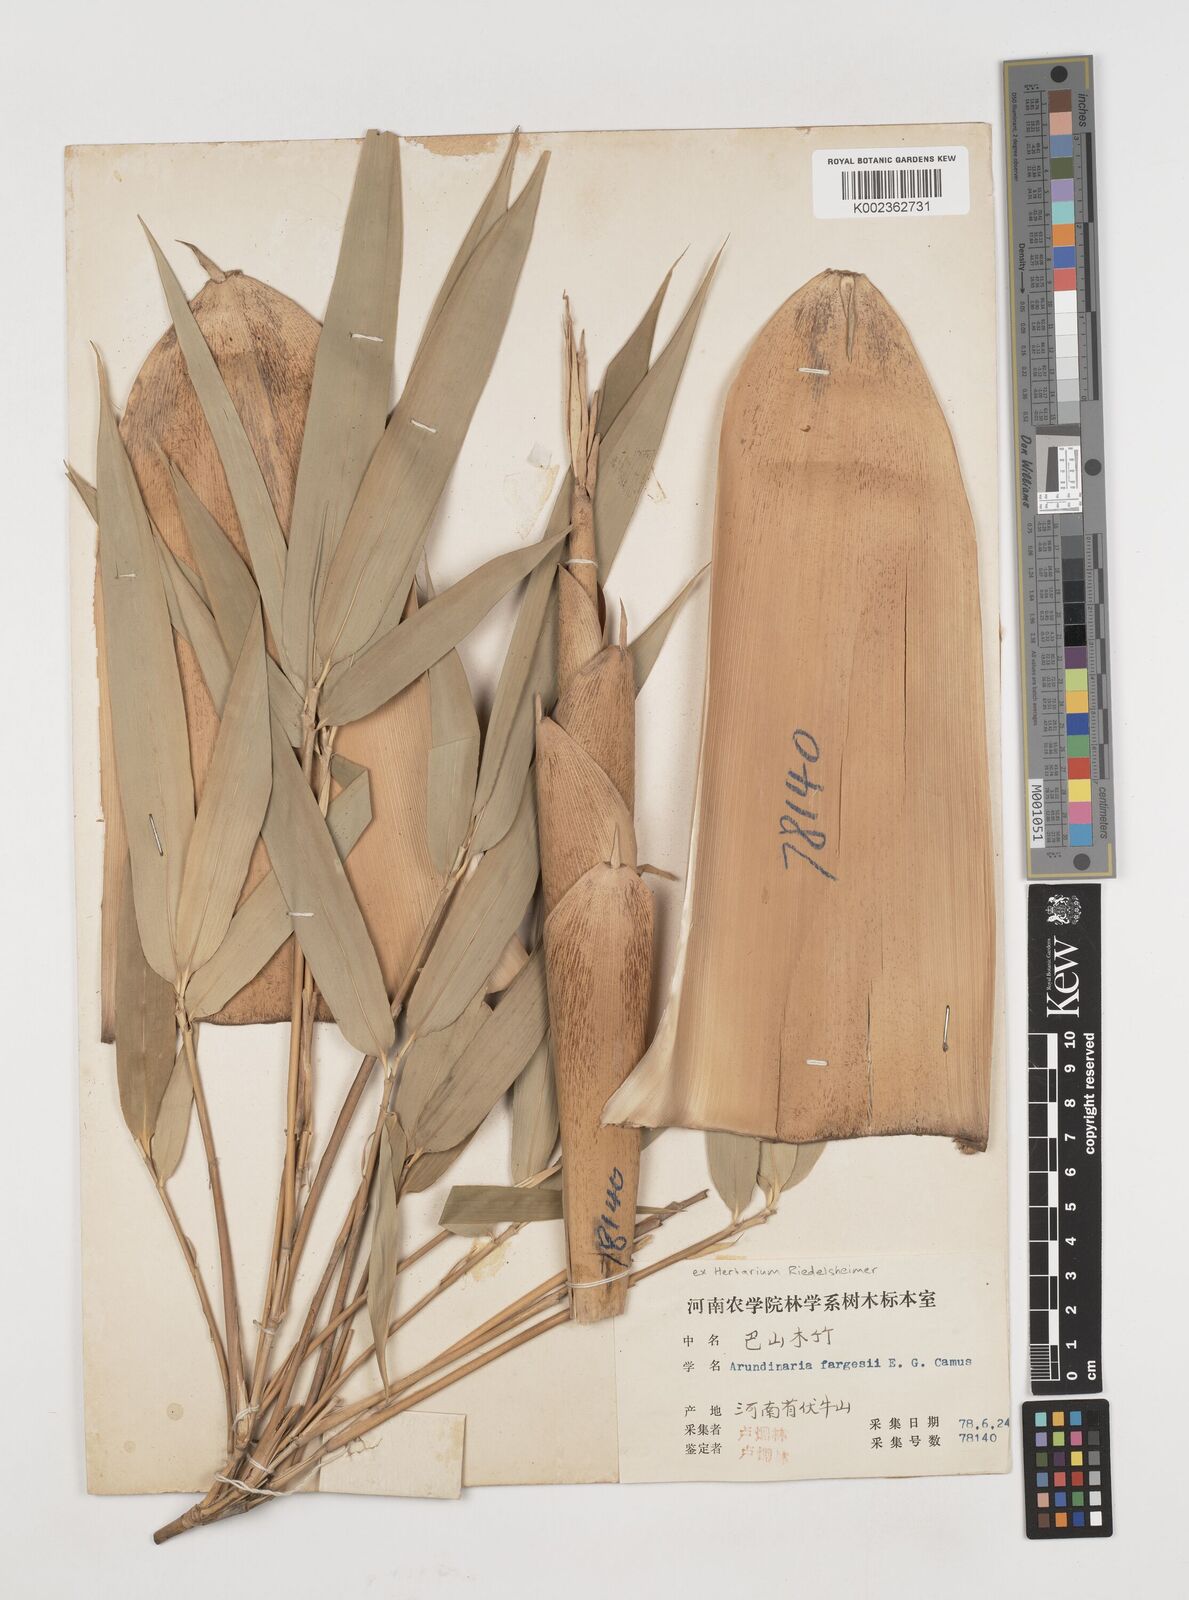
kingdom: Plantae
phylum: Tracheophyta
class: Liliopsida
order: Poales
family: Poaceae
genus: Bashania
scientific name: Bashania fargesii
